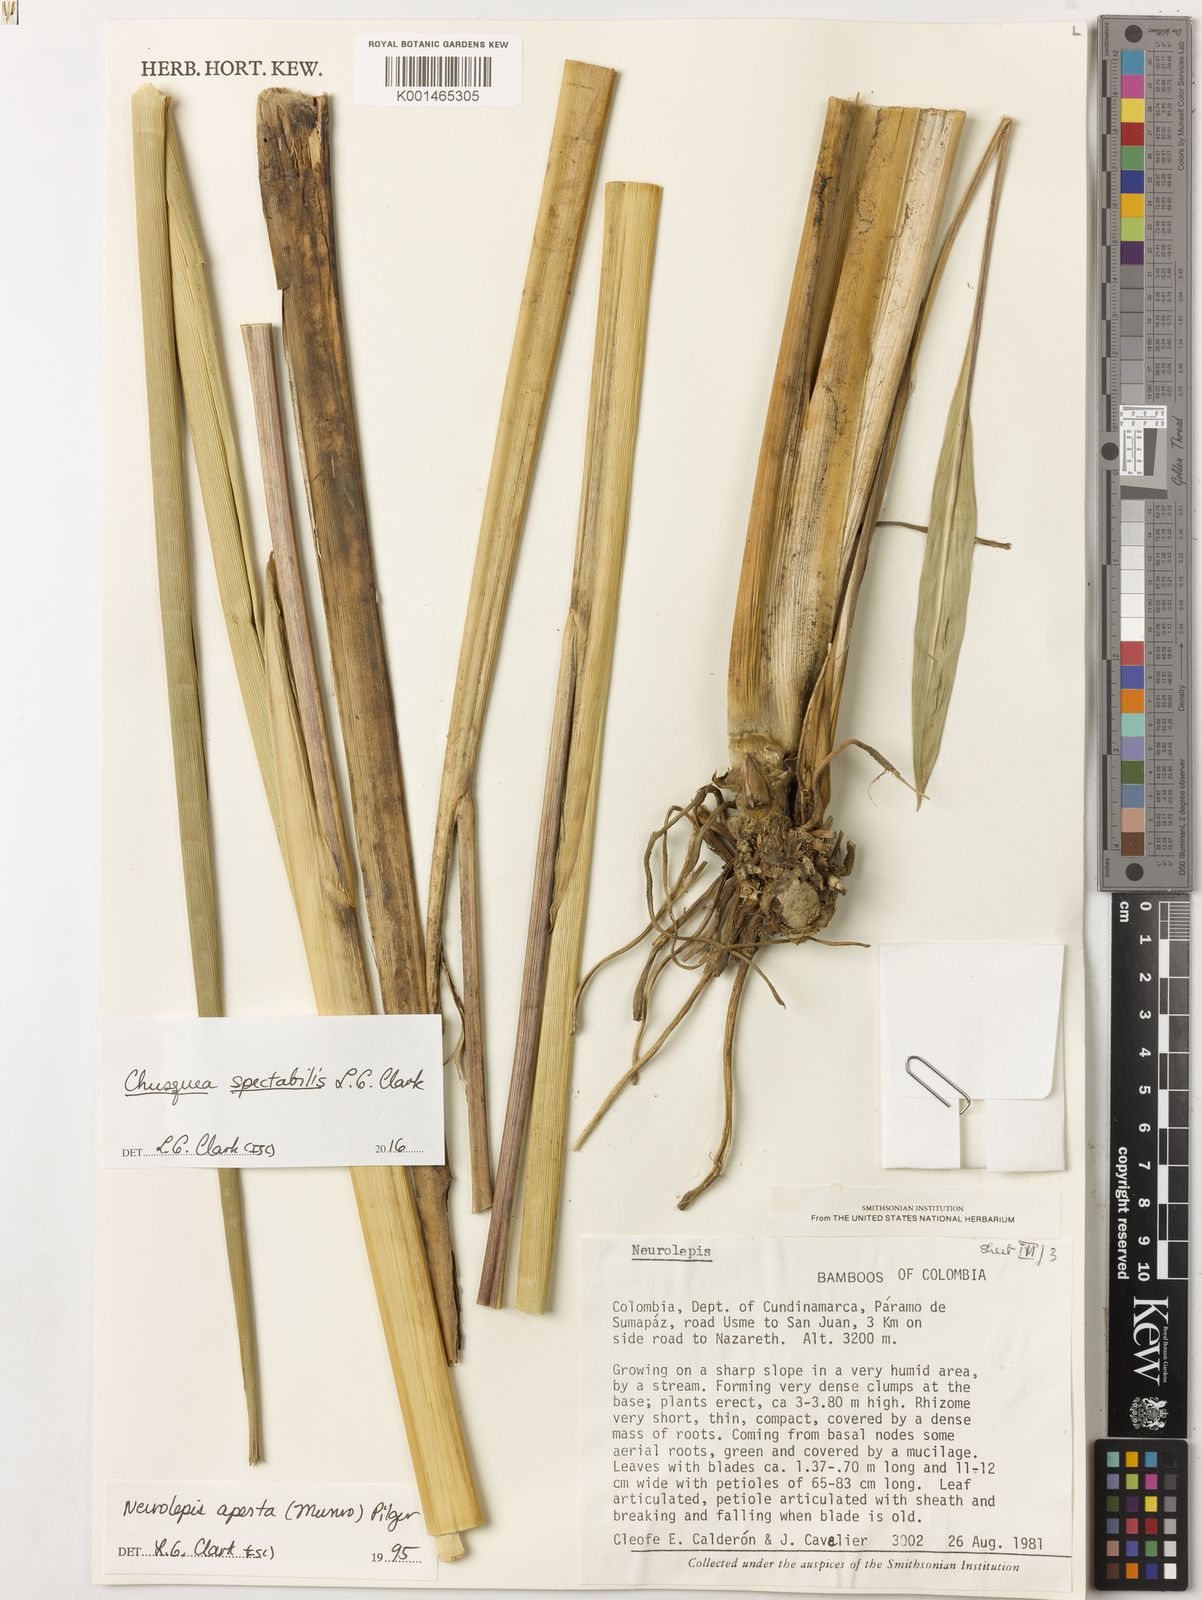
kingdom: Plantae
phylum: Tracheophyta
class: Liliopsida
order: Poales
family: Poaceae
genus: Chusquea
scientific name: Chusquea spectabilis
